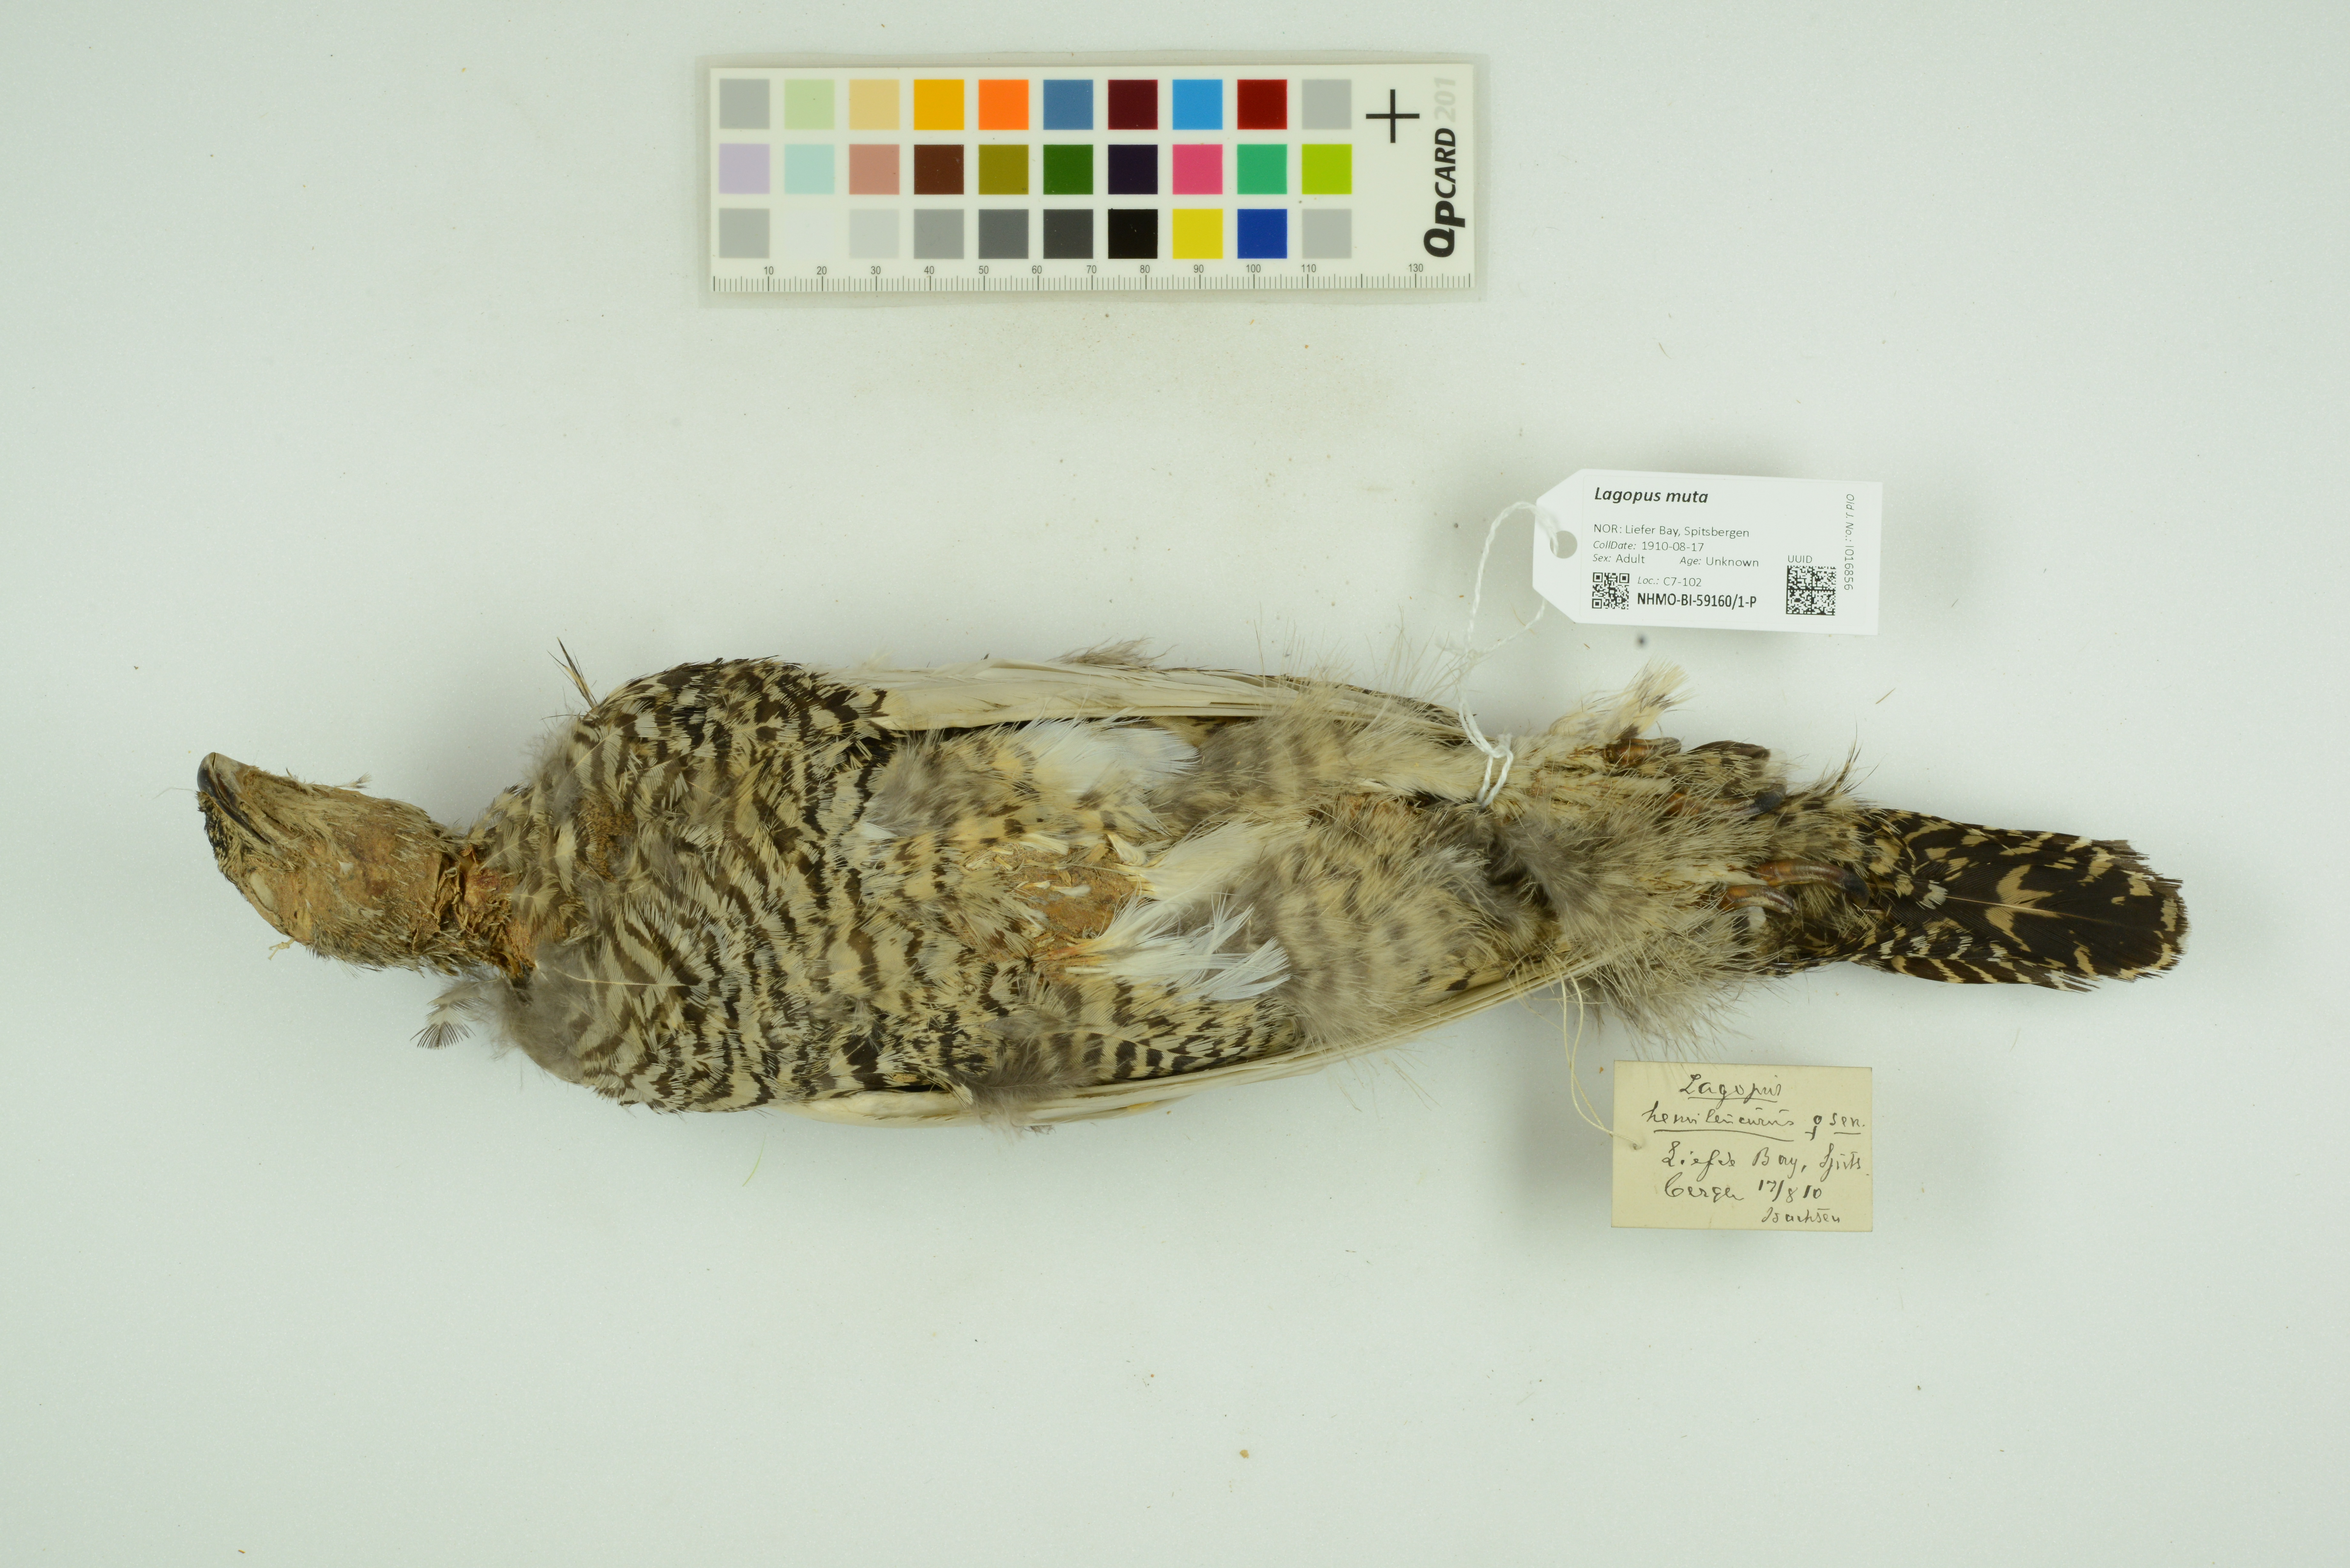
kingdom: Animalia
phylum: Chordata
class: Aves
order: Galliformes
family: Phasianidae
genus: Lagopus
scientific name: Lagopus muta
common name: Rock ptarmigan
